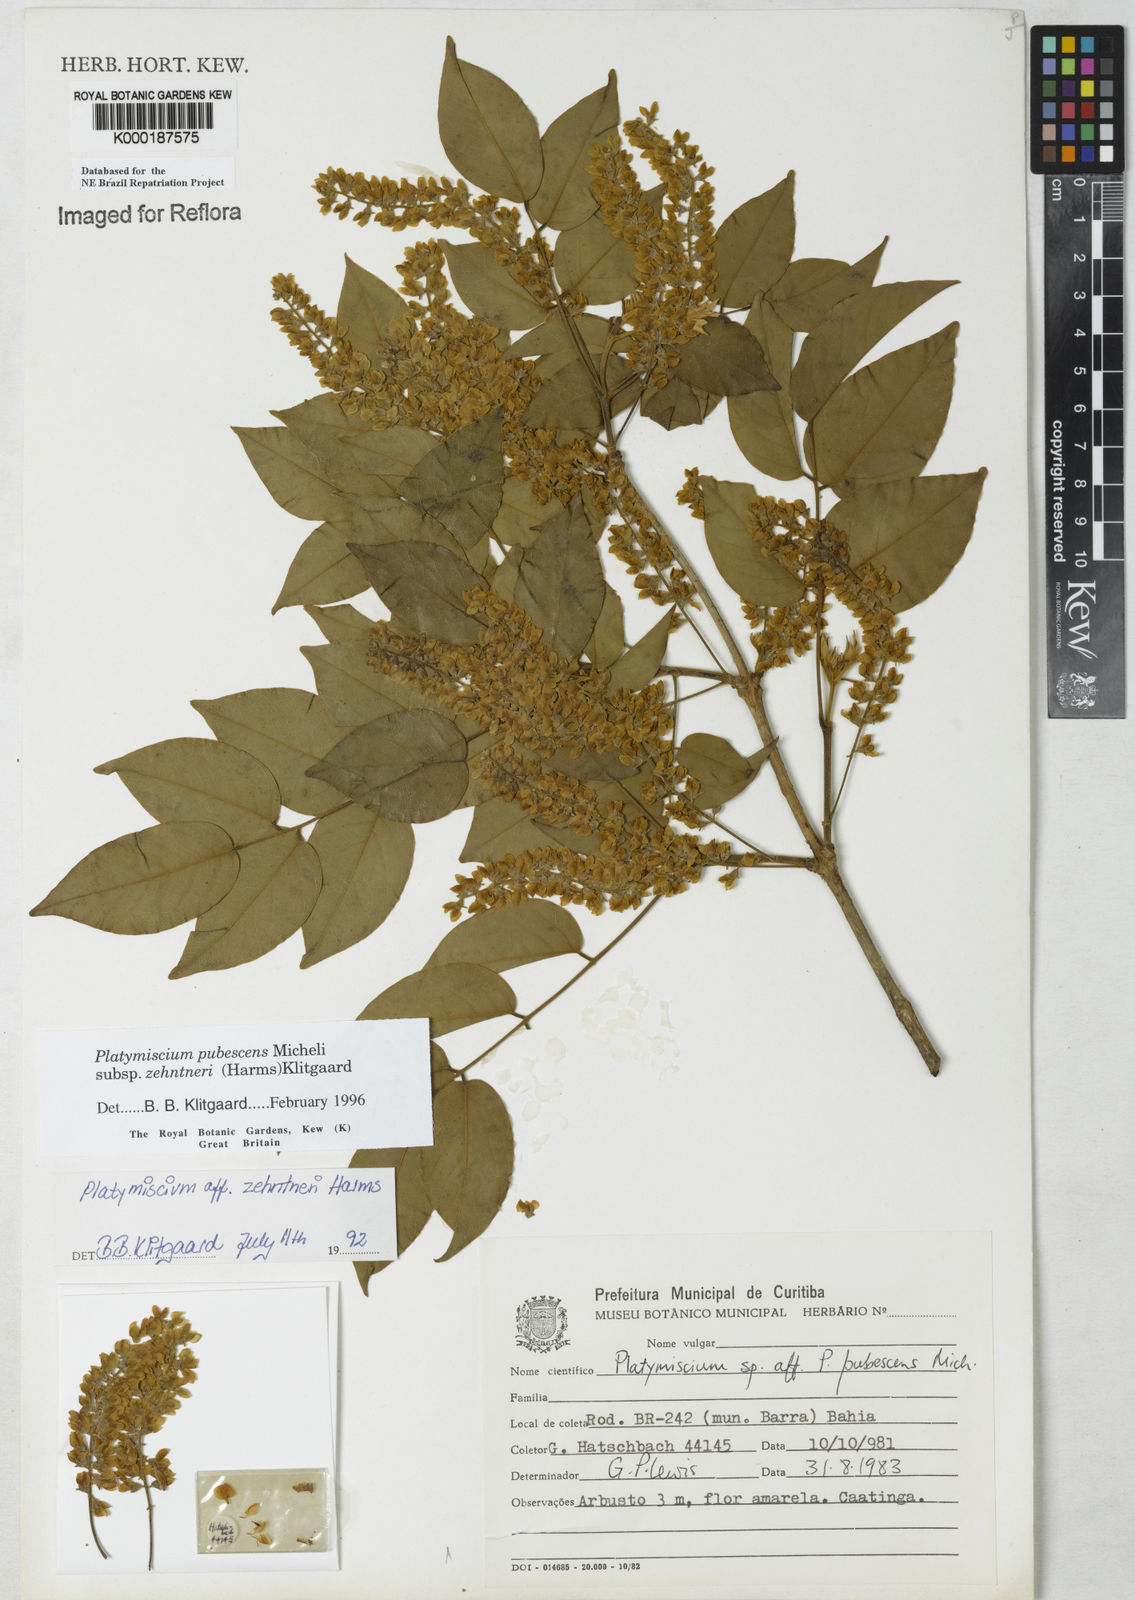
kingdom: Plantae
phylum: Tracheophyta
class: Magnoliopsida
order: Fabales
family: Fabaceae
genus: Platymiscium
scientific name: Platymiscium pubescens
